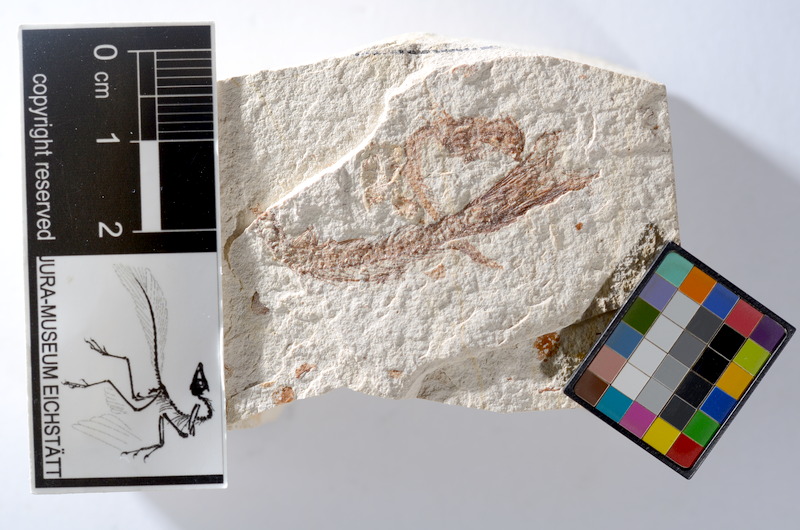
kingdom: Animalia
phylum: Chordata
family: Ascalaboidae
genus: Tharsis
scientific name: Tharsis dubius
